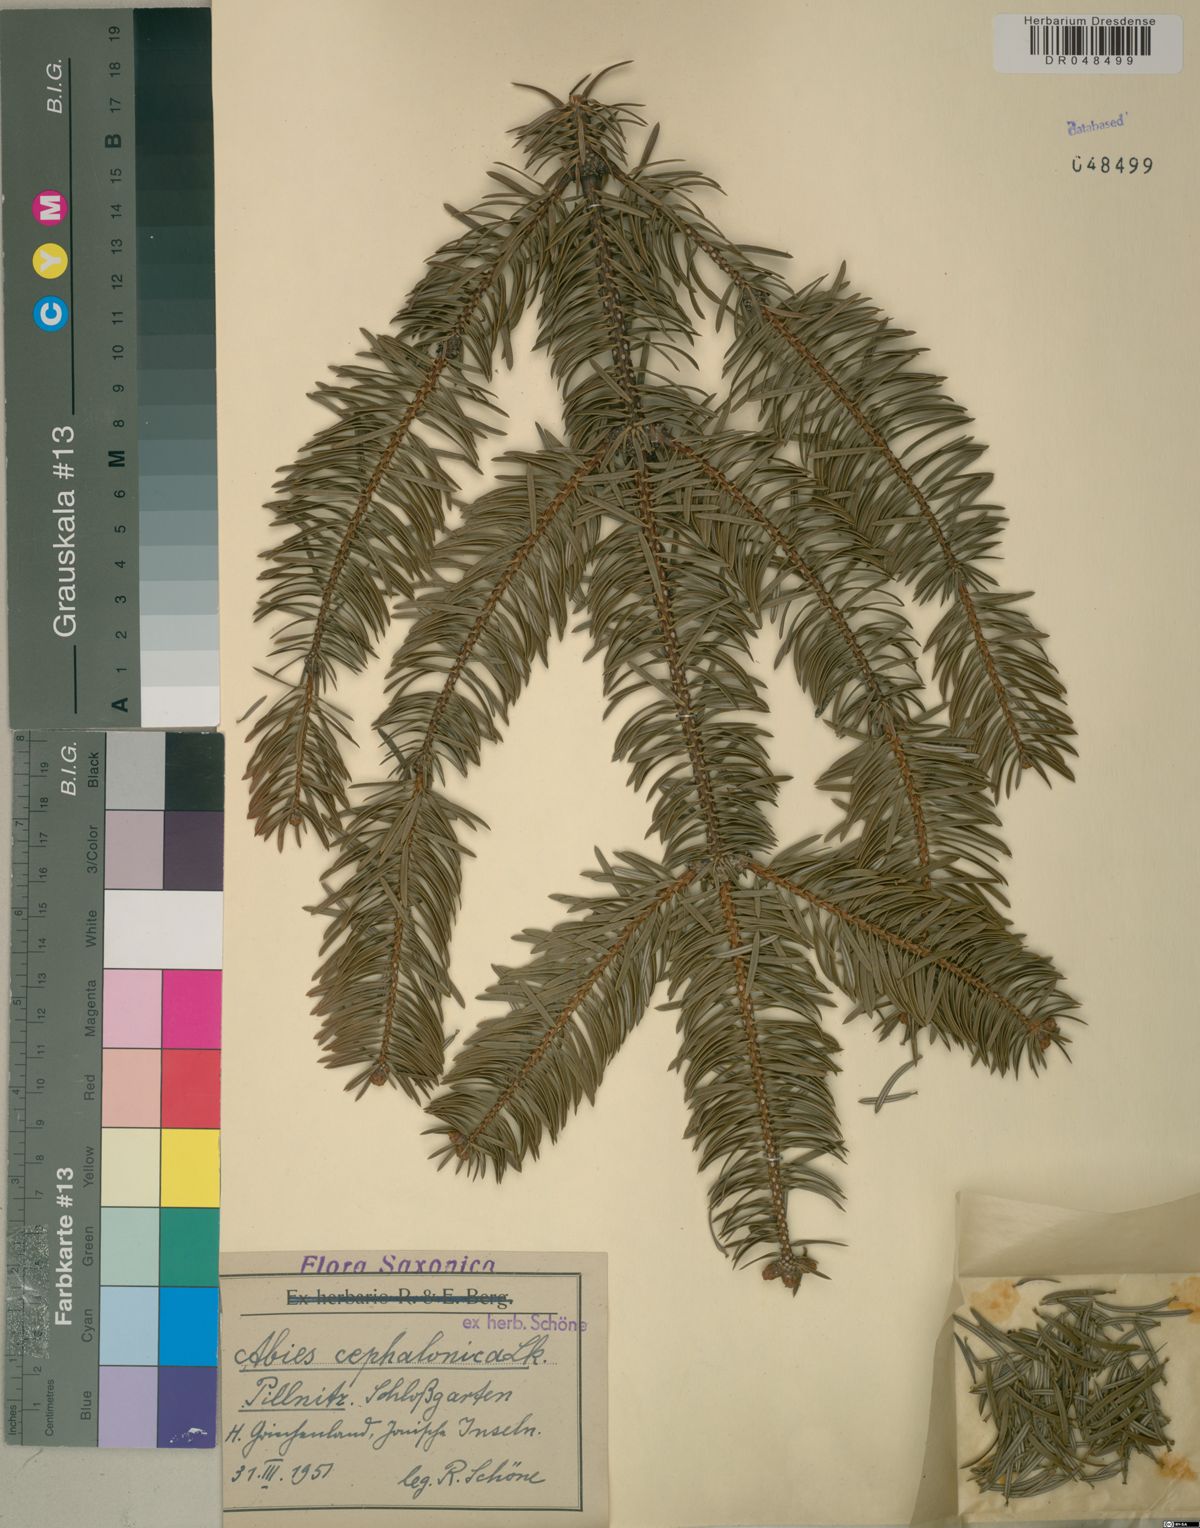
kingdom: Plantae
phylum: Tracheophyta
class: Pinopsida
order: Pinales
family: Pinaceae
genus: Abies
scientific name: Abies cephalonica
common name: Greek fir
